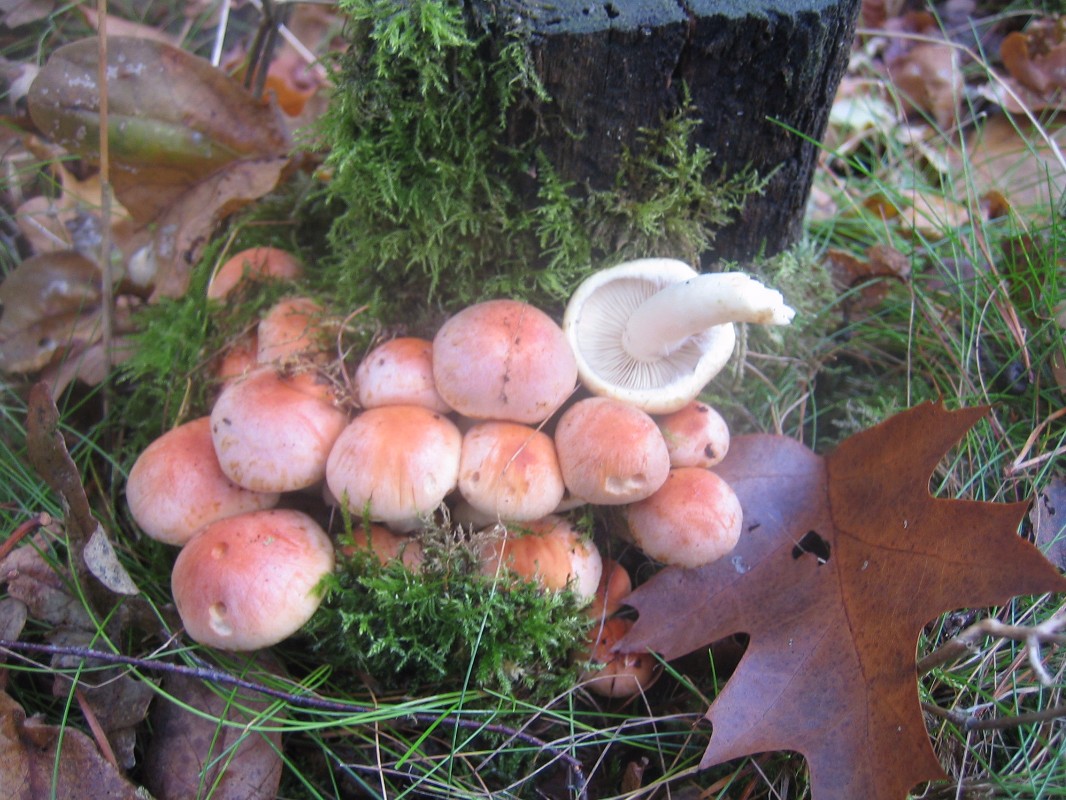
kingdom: Fungi
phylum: Basidiomycota
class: Agaricomycetes
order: Agaricales
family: Strophariaceae
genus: Hypholoma
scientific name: Hypholoma lateritium
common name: teglrød svovlhat
